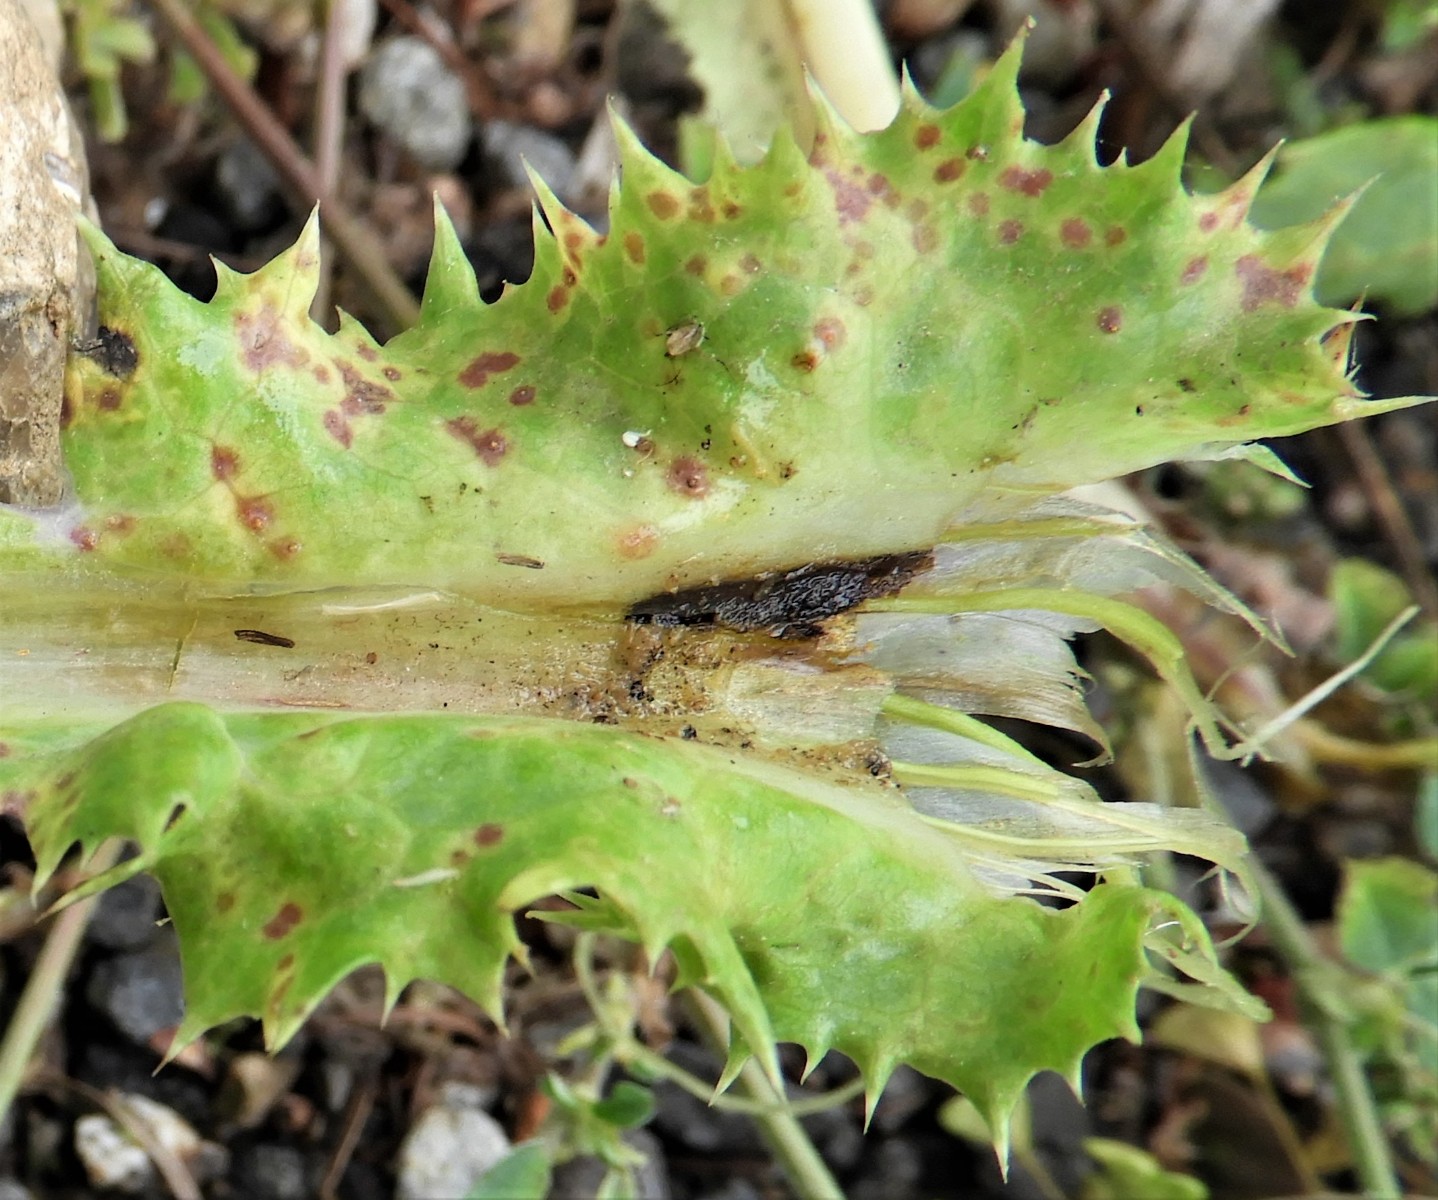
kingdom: Fungi
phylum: Basidiomycota
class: Pucciniomycetes
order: Pucciniales
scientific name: Pucciniales
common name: rustsvampeordenen
